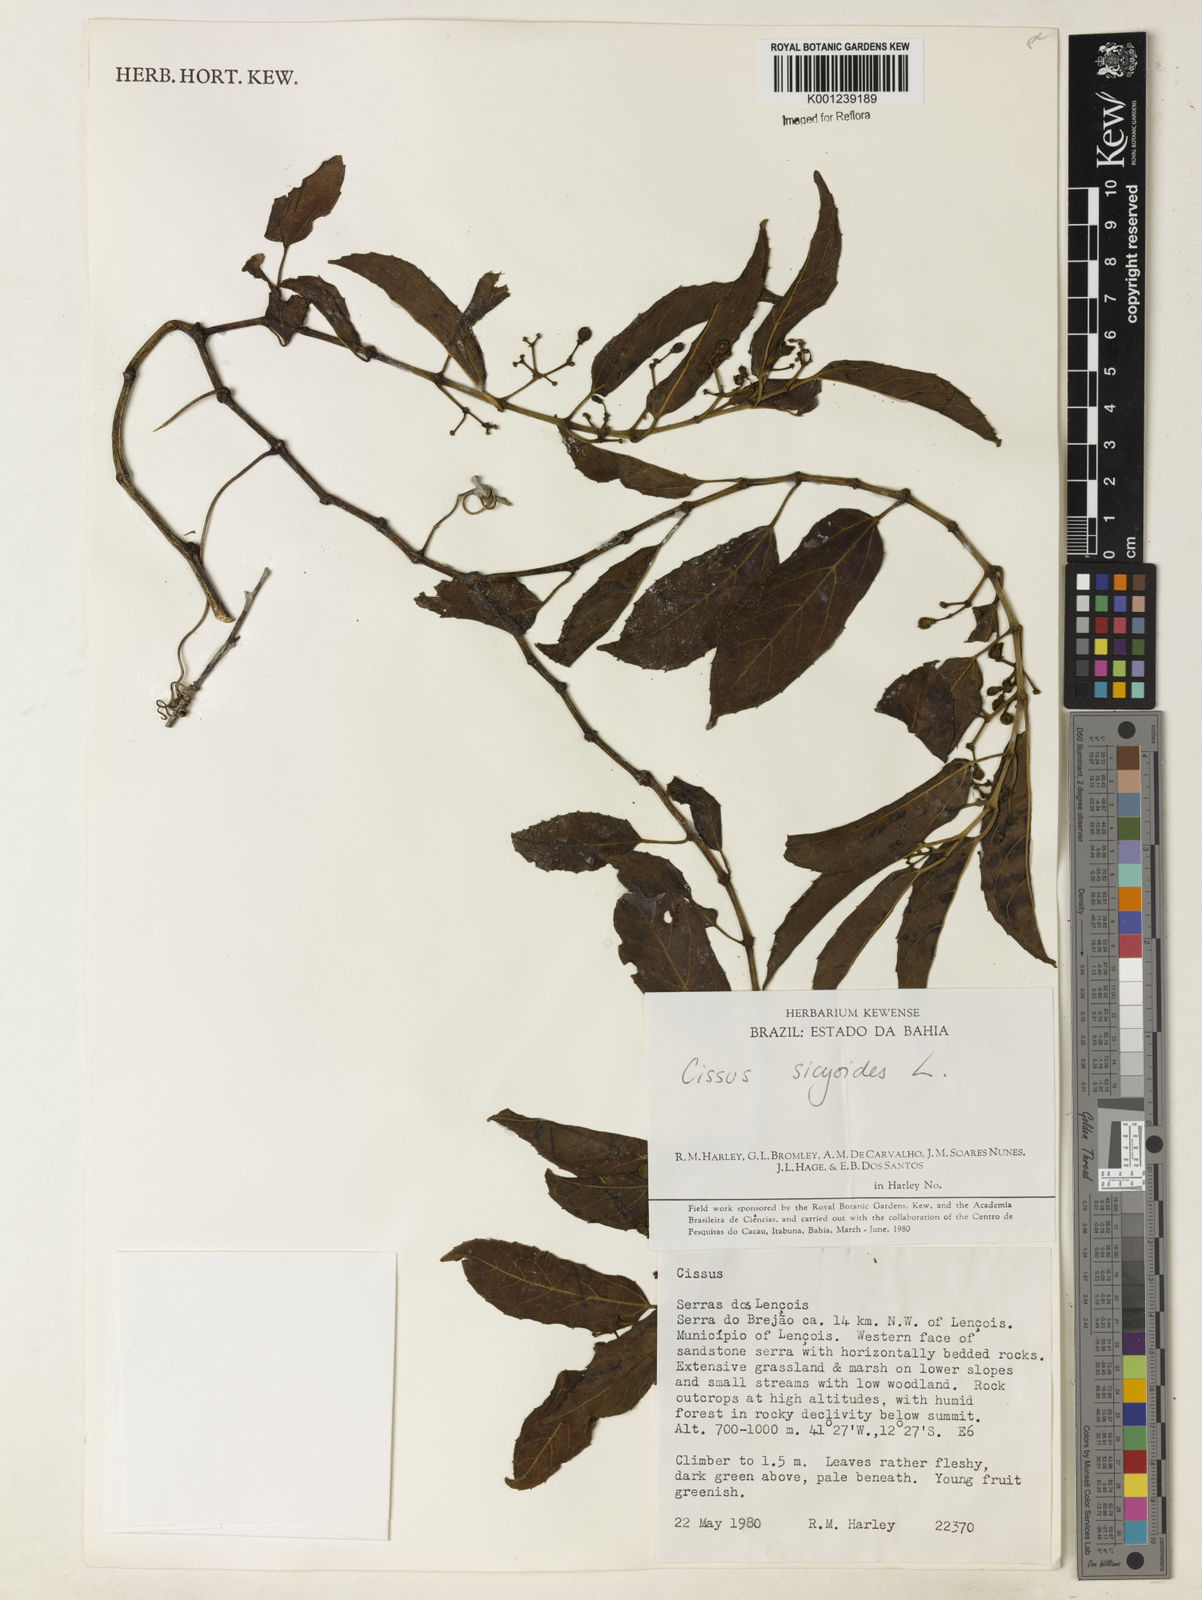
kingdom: Plantae
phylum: Tracheophyta
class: Magnoliopsida
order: Vitales
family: Vitaceae
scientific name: Vitaceae
